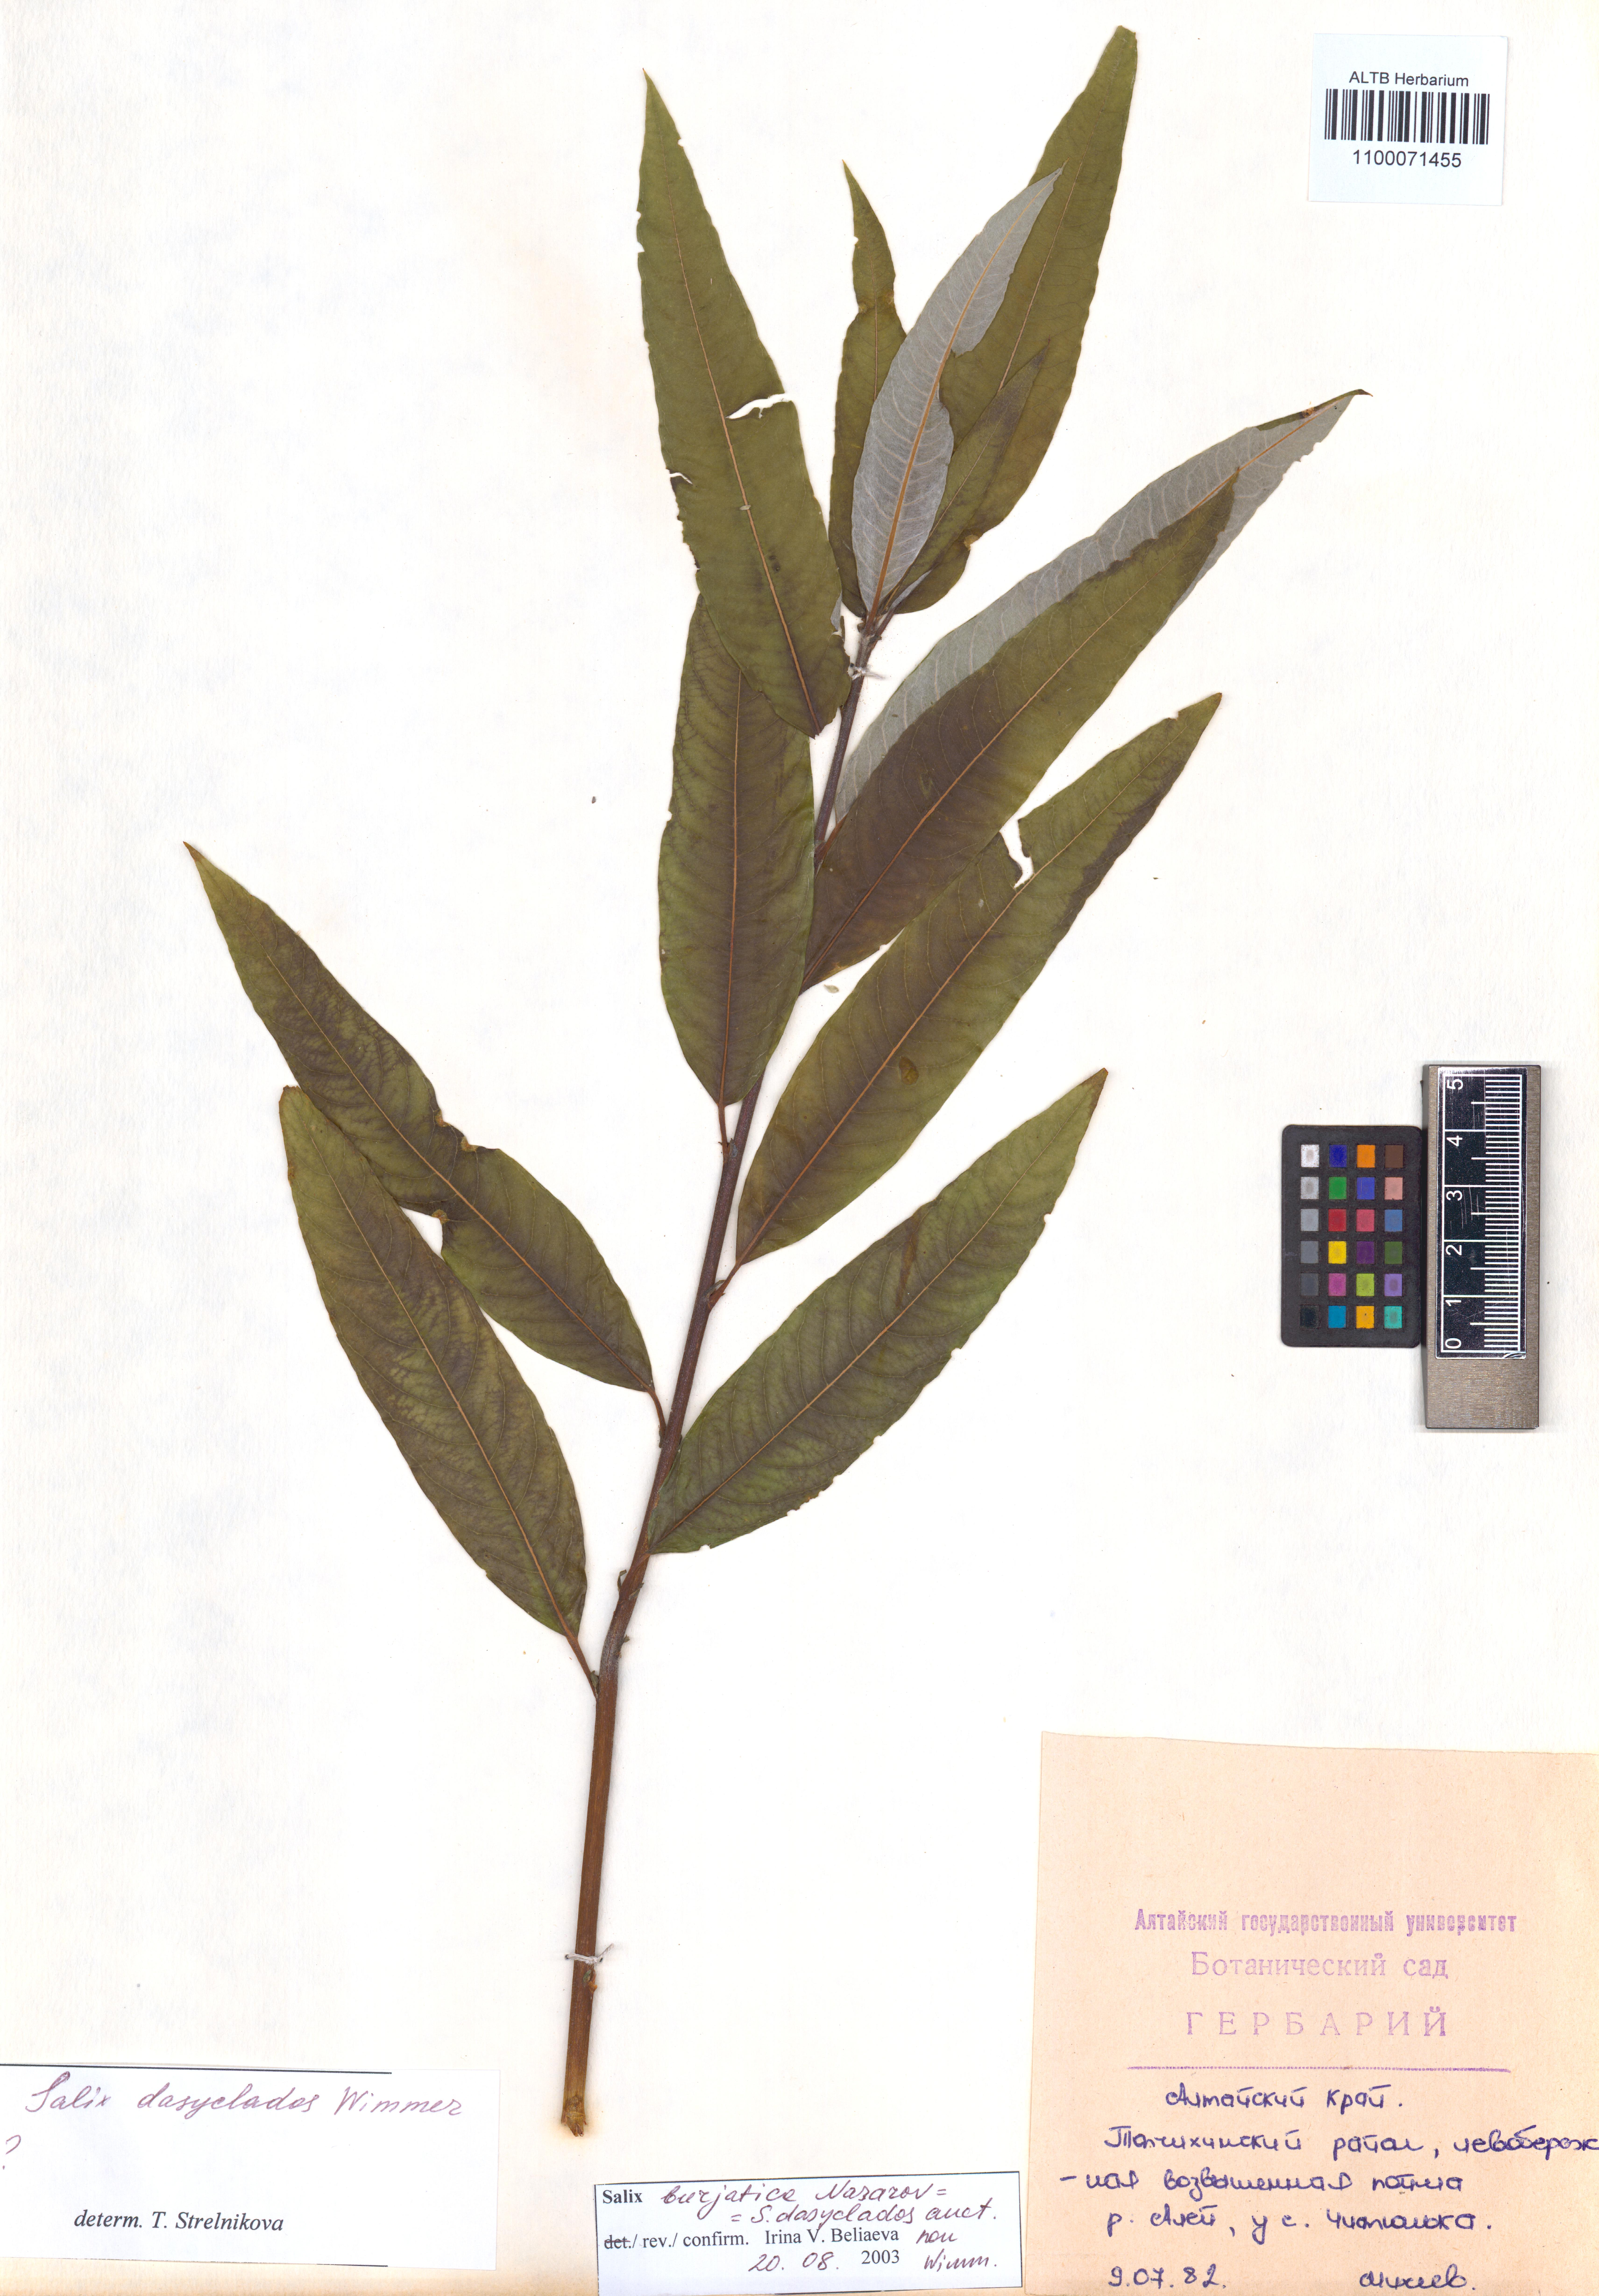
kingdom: Plantae
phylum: Tracheophyta
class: Magnoliopsida
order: Malpighiales
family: Salicaceae
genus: Salix
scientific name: Salix gmelinii
